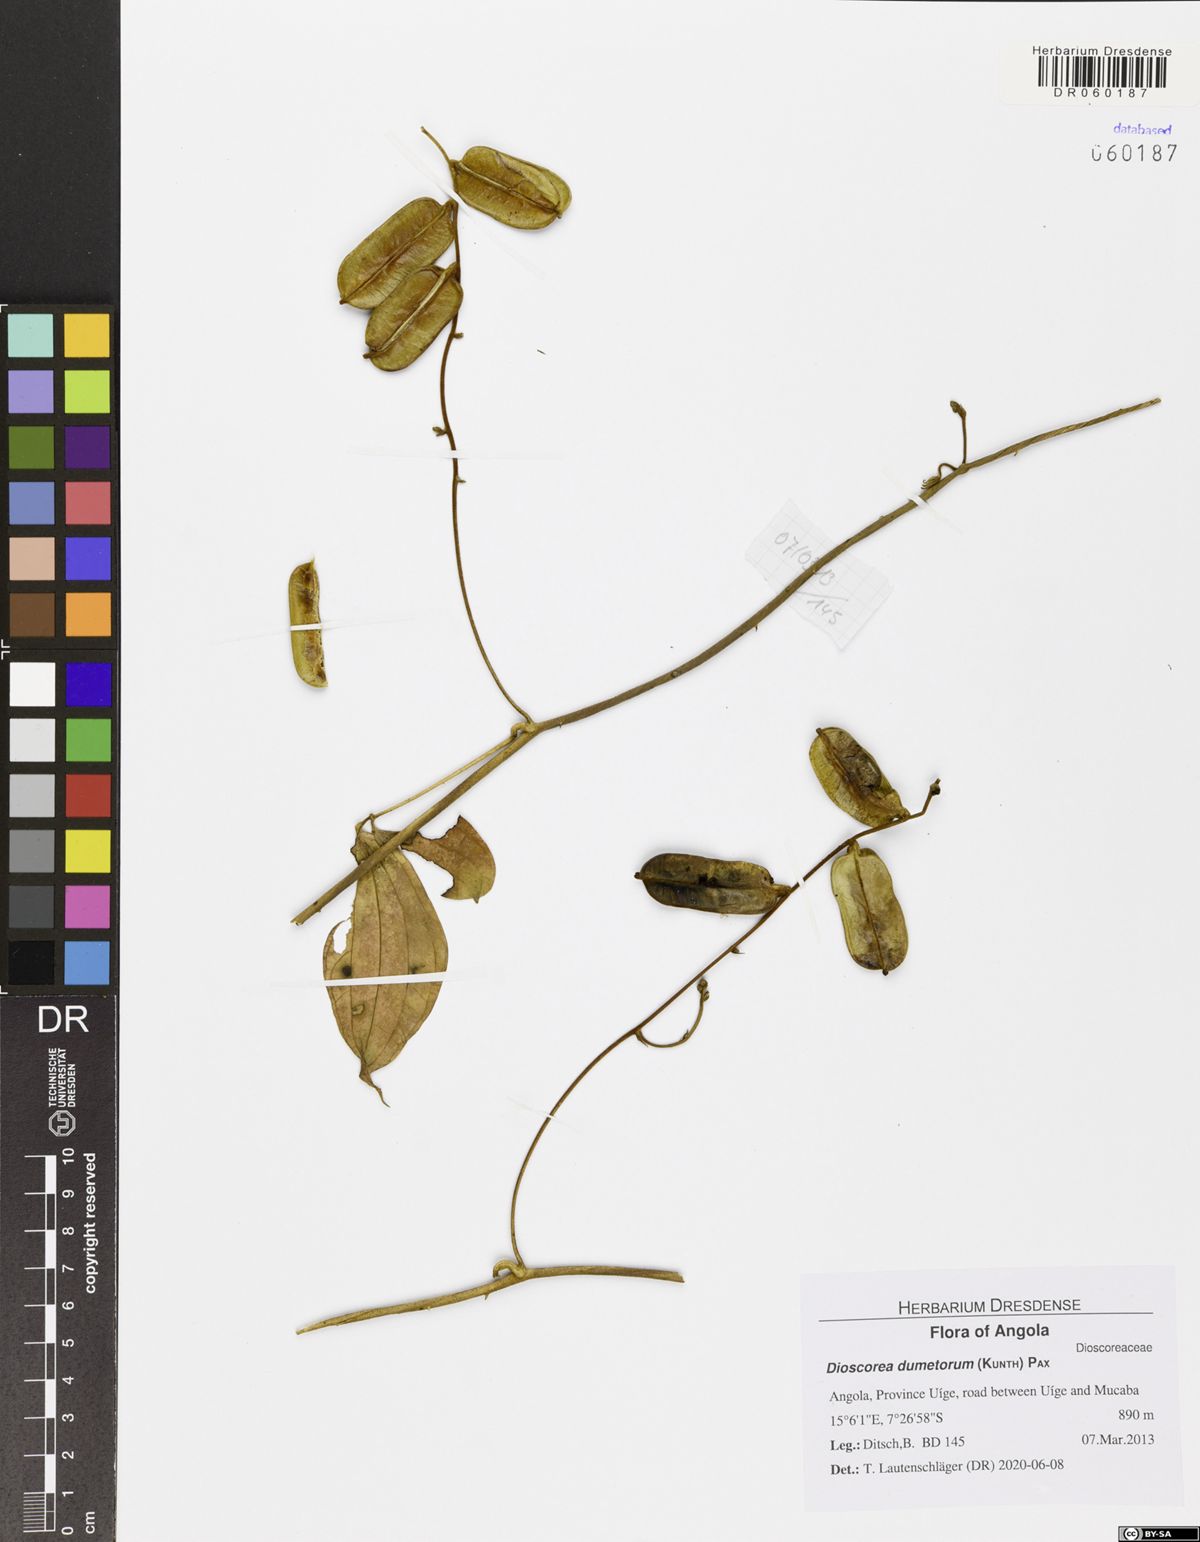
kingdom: Plantae
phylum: Tracheophyta
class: Liliopsida
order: Dioscoreales
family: Dioscoreaceae
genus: Dioscorea
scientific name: Dioscorea dumetorum
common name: African bitter yam
